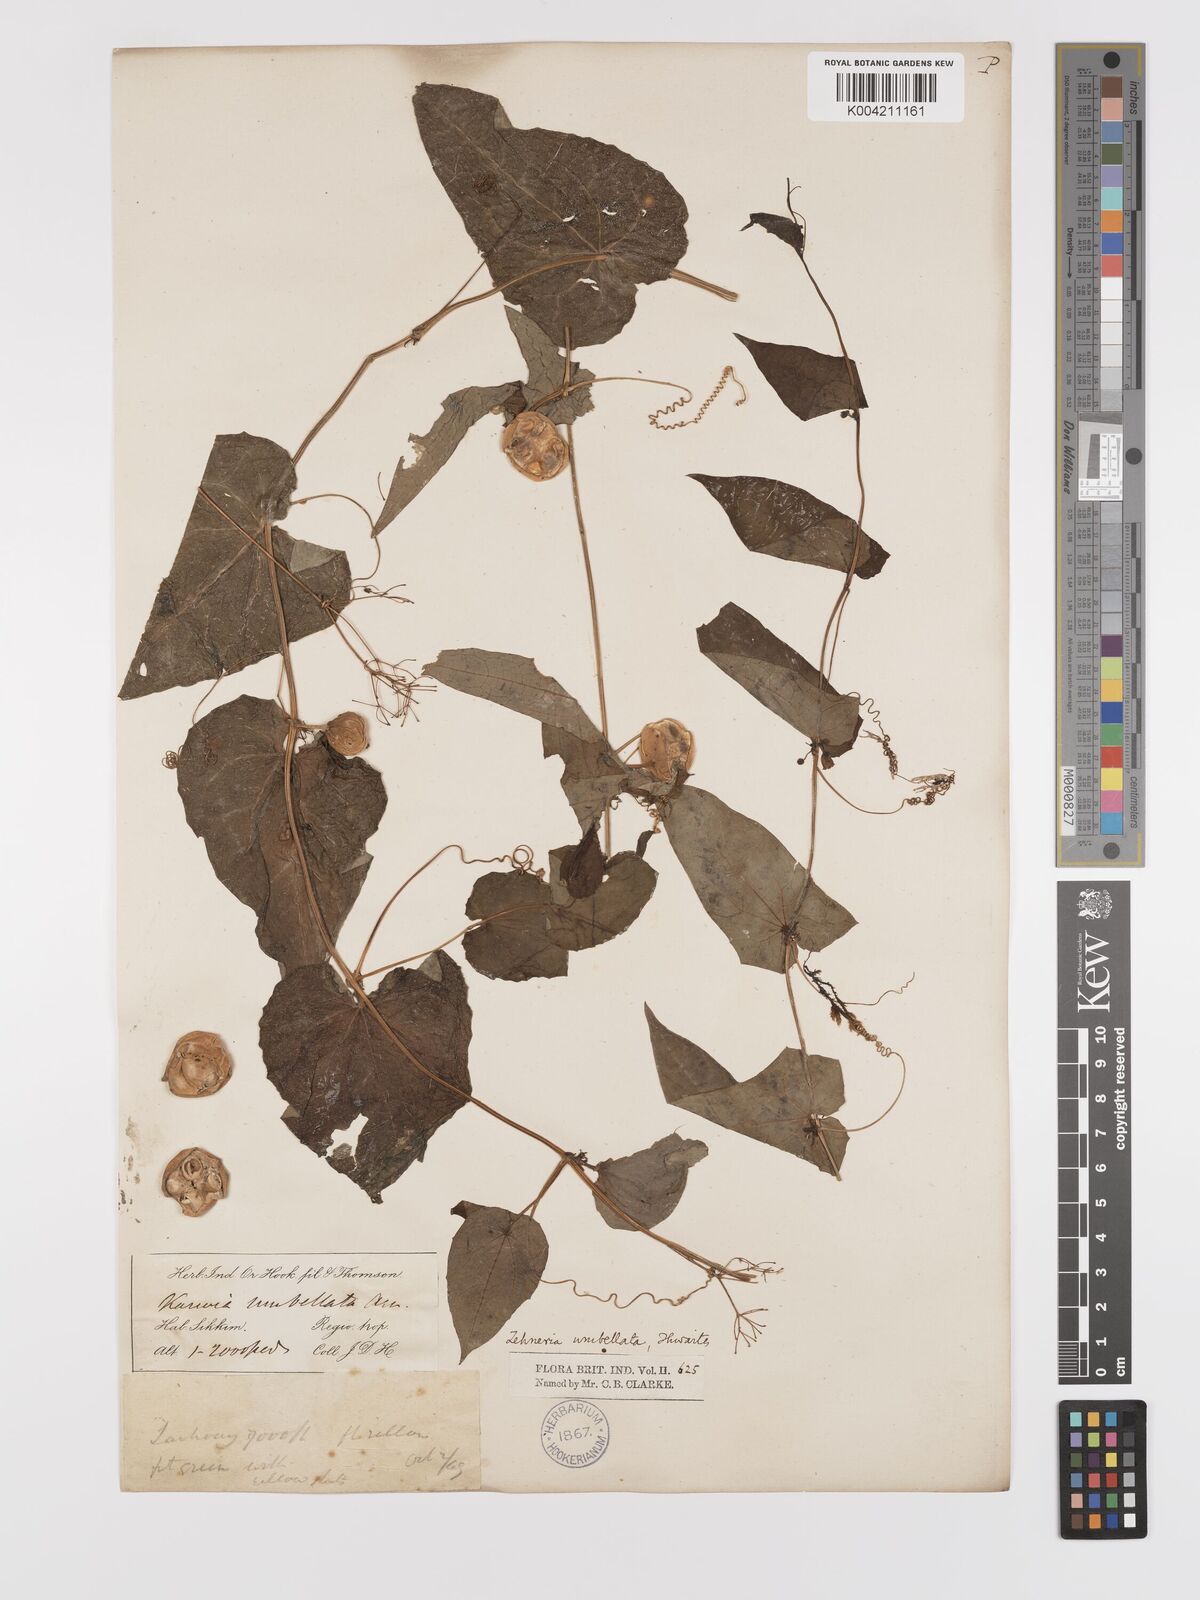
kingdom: Plantae
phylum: Tracheophyta
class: Magnoliopsida
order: Cucurbitales
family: Cucurbitaceae
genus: Solena
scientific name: Solena amplexicaulis
